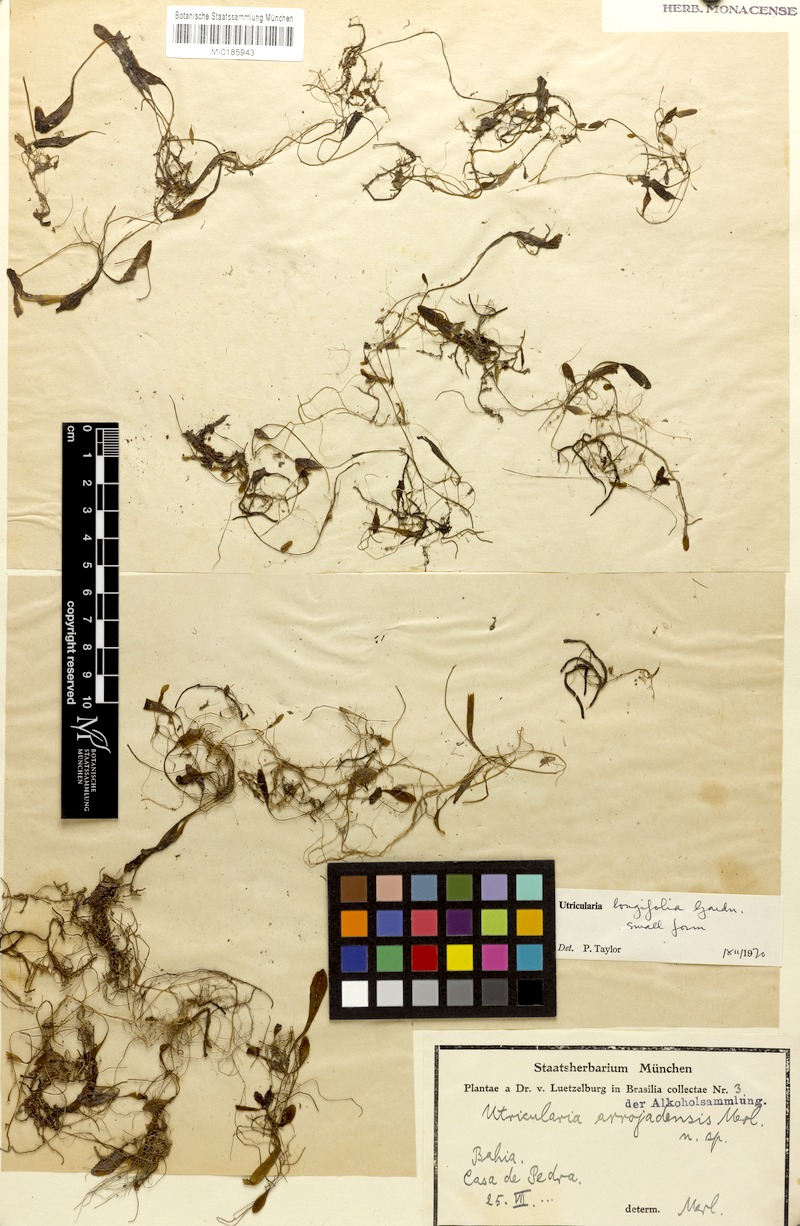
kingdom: Plantae
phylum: Tracheophyta
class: Magnoliopsida
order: Lamiales
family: Lentibulariaceae
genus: Utricularia
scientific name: Utricularia longifolia
